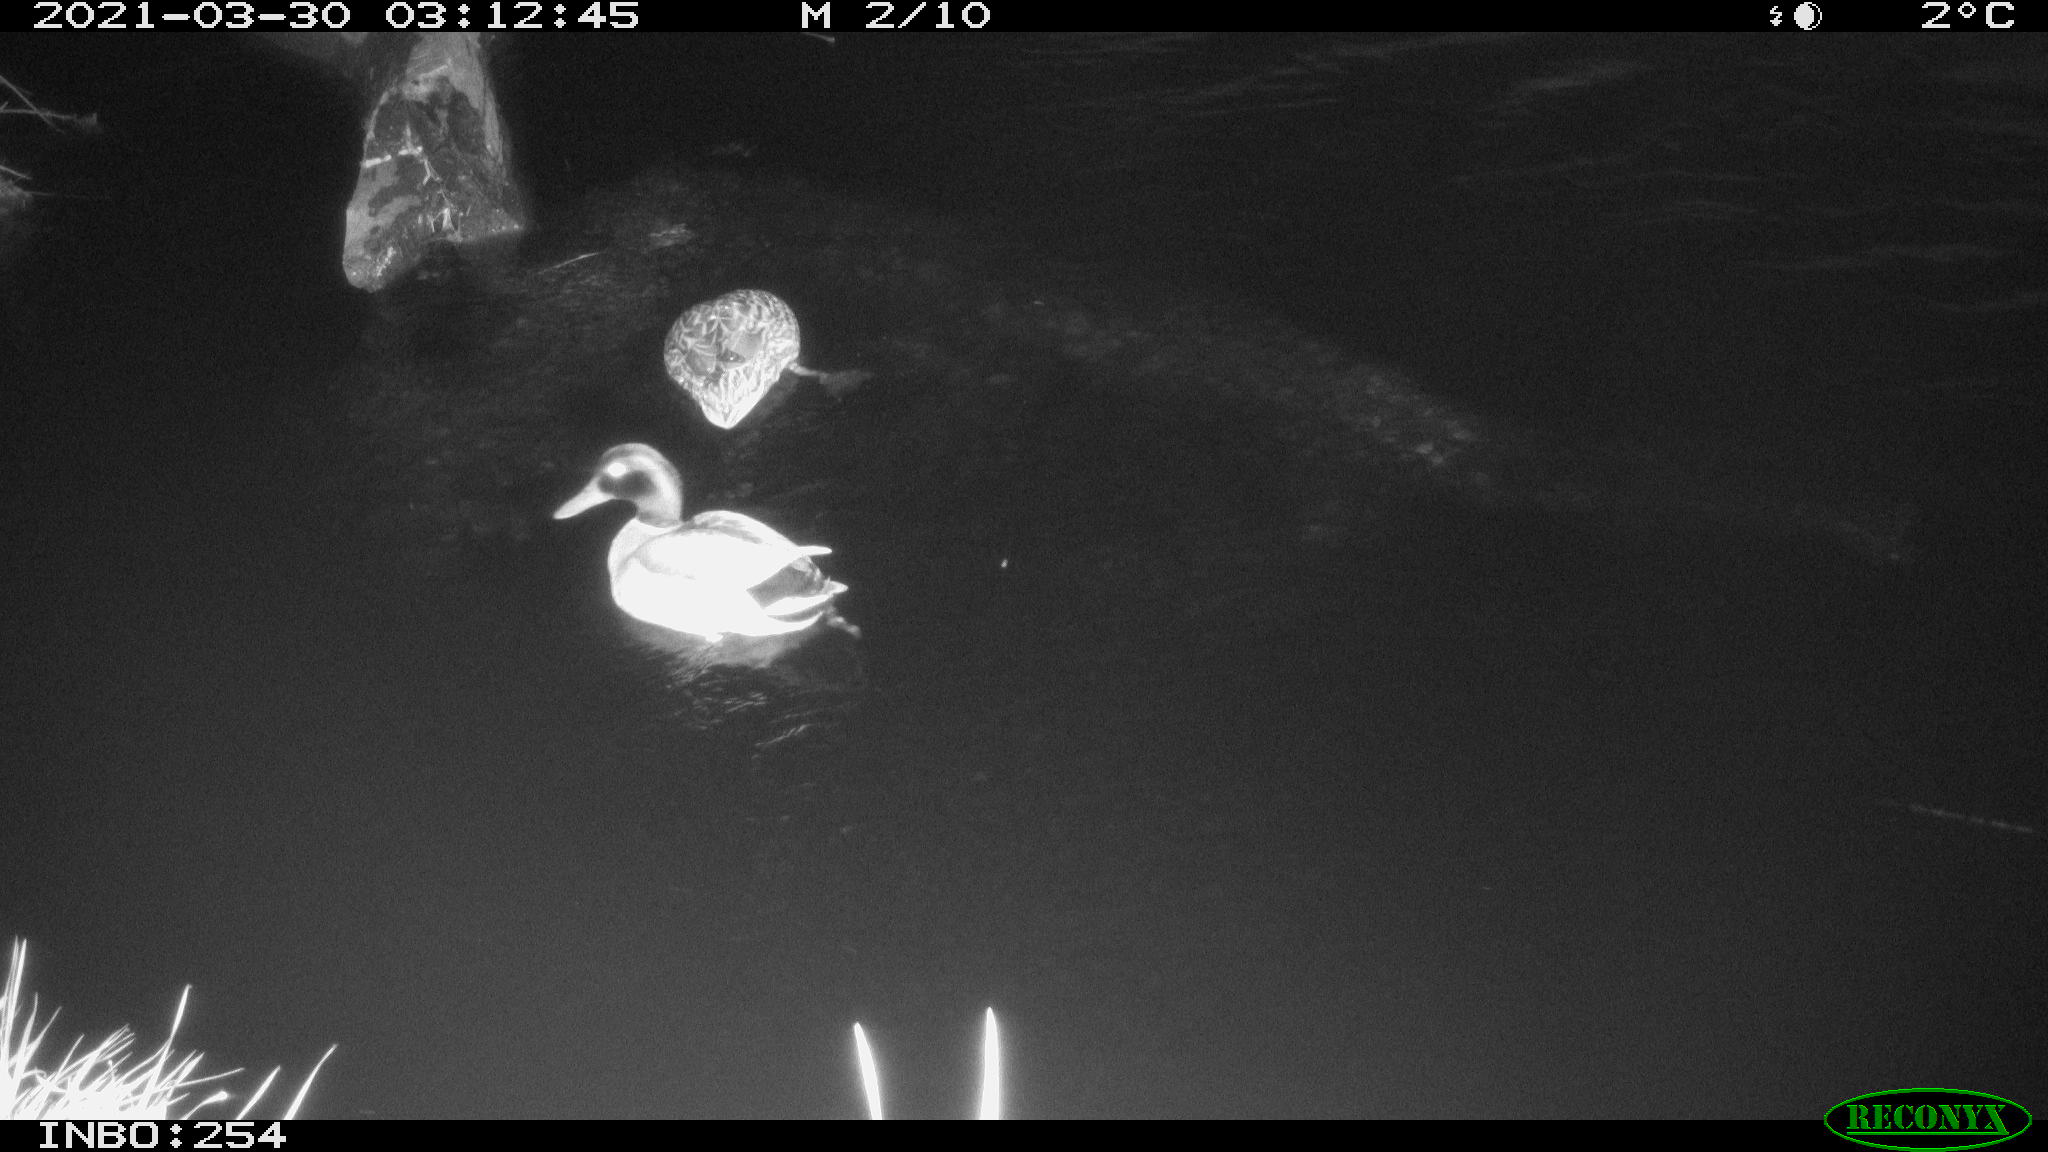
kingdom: Animalia
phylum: Chordata
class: Aves
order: Anseriformes
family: Anatidae
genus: Anas
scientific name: Anas platyrhynchos
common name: Mallard
